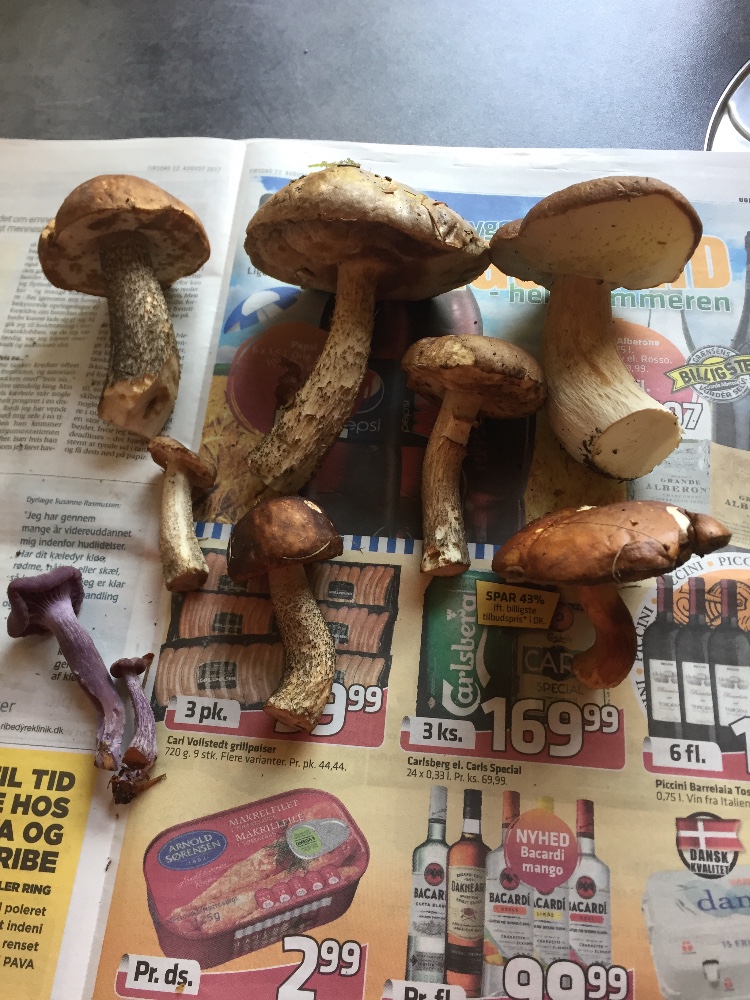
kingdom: Fungi
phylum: Basidiomycota
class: Agaricomycetes
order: Agaricales
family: Hydnangiaceae
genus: Laccaria
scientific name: Laccaria amethystina
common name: violet ametysthat
